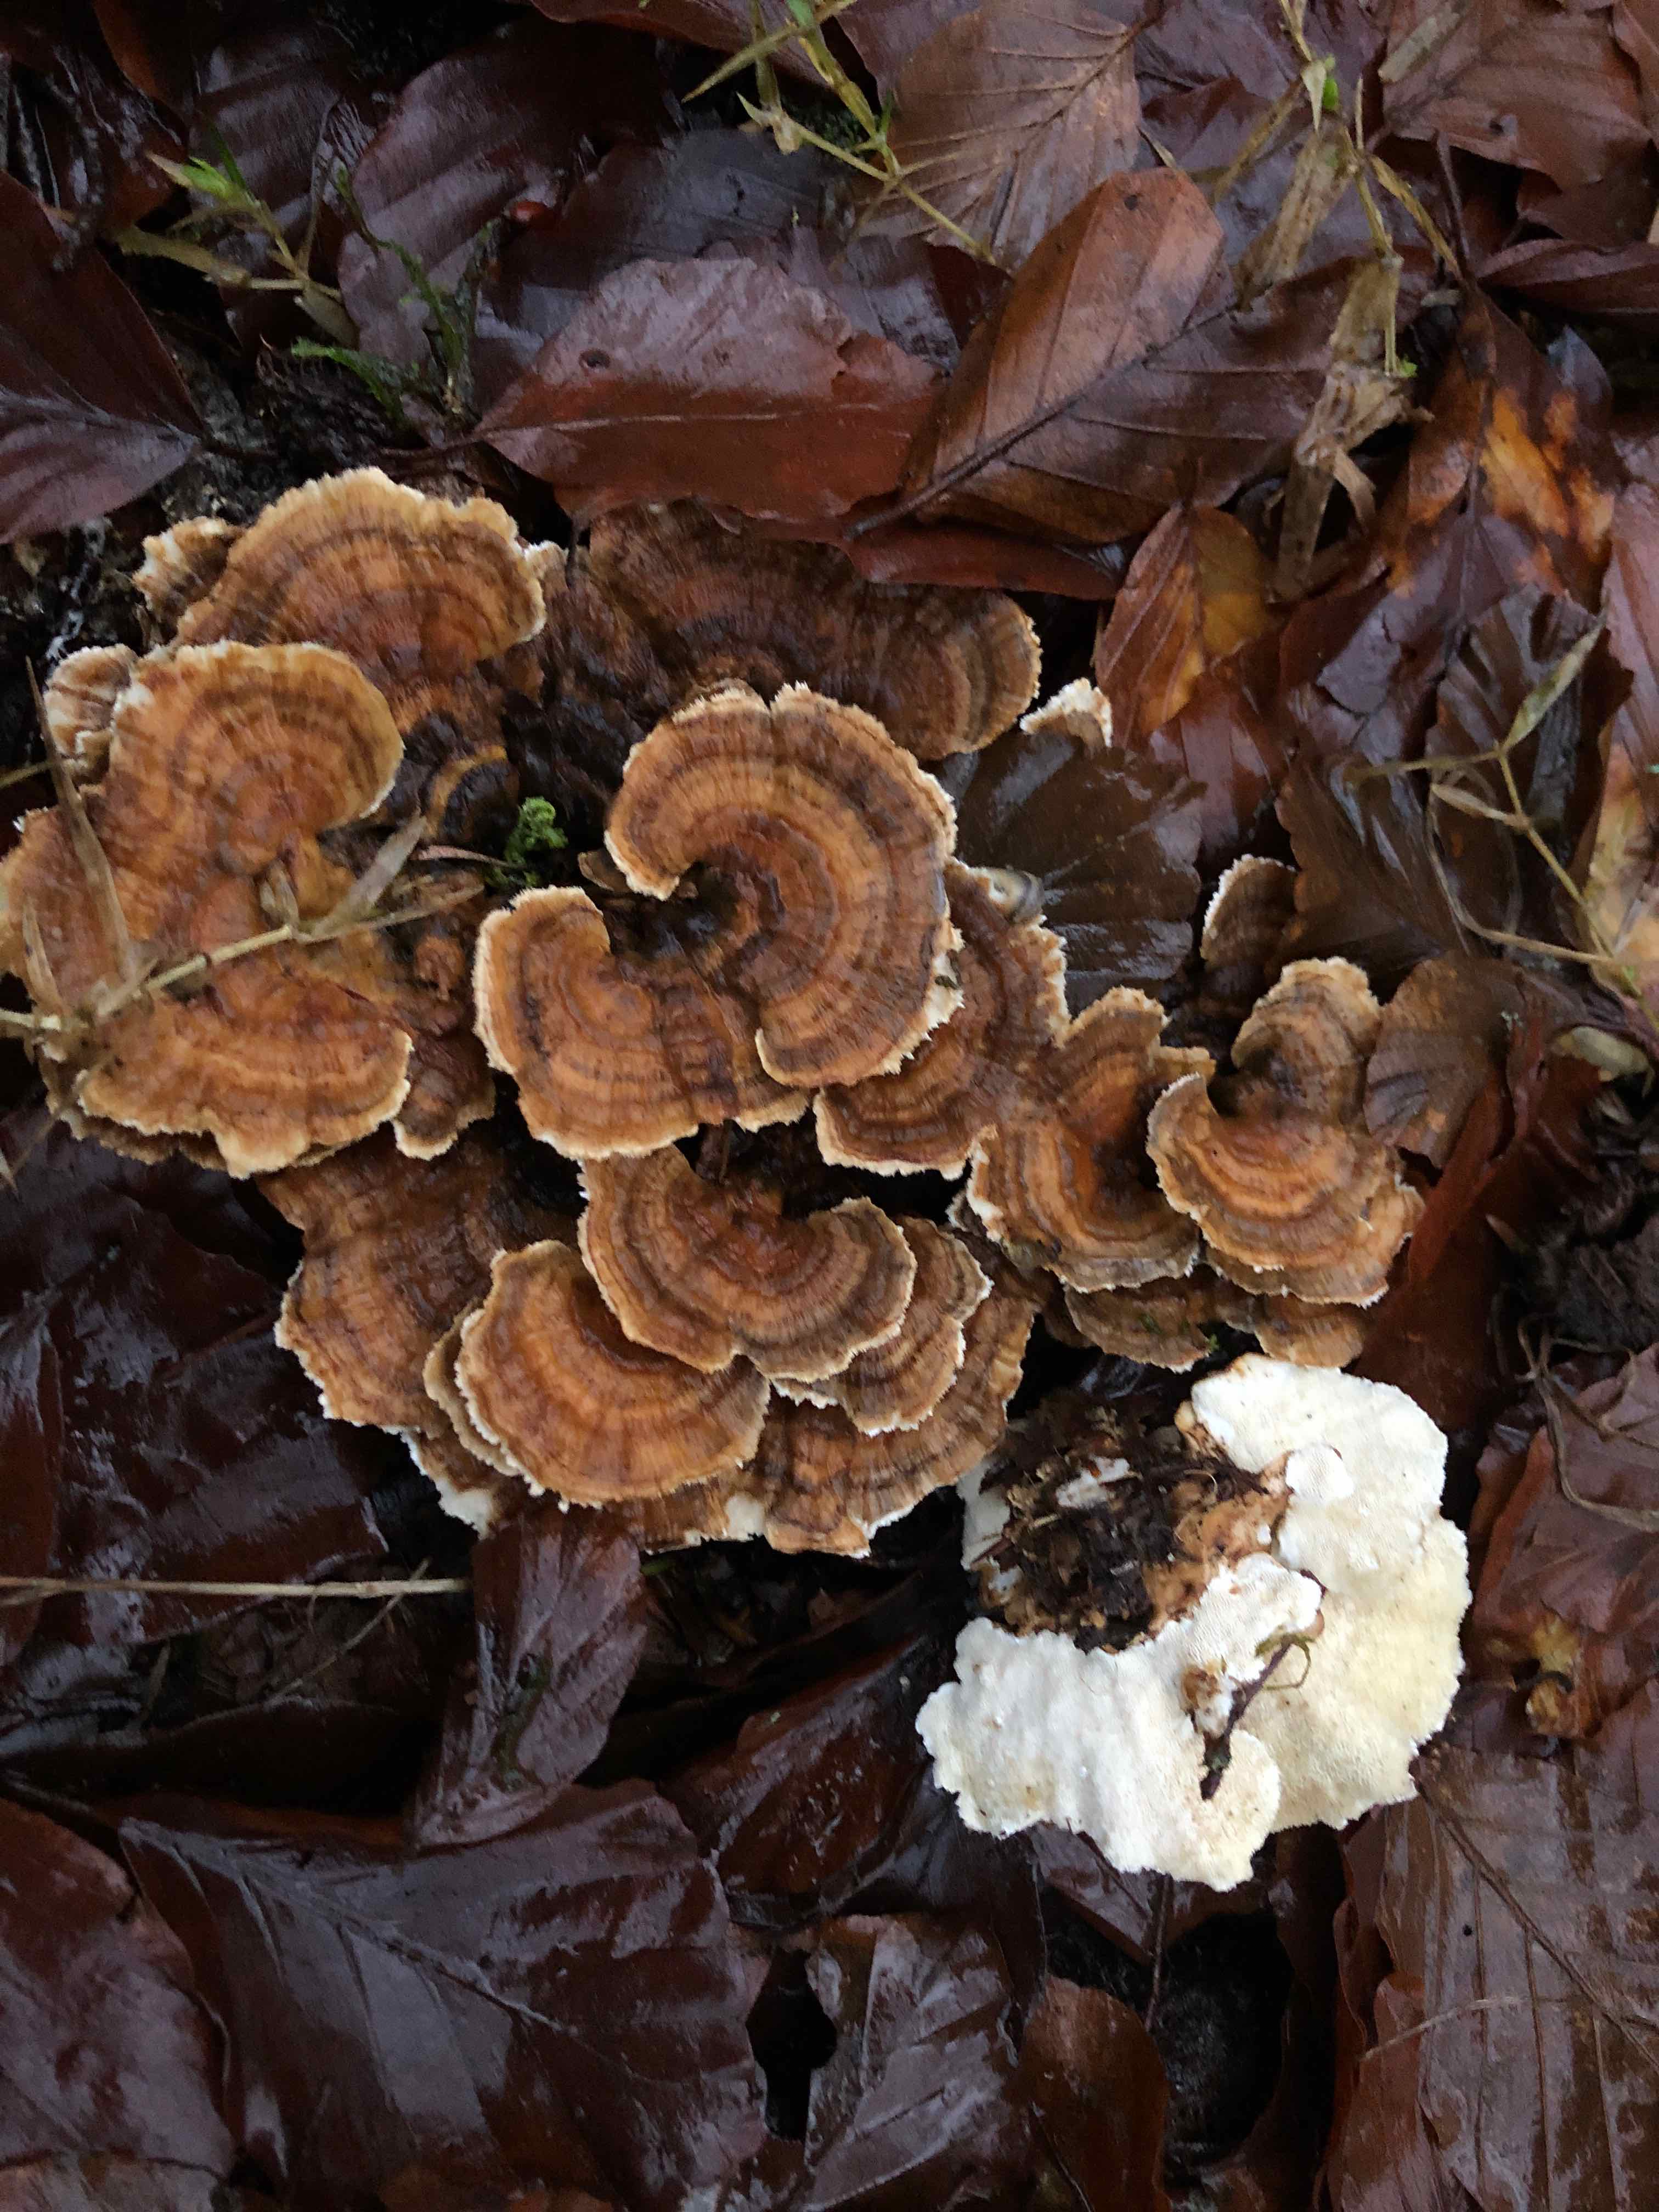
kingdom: Fungi
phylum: Basidiomycota
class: Agaricomycetes
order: Polyporales
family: Polyporaceae
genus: Trametes
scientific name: Trametes versicolor
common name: broget læderporesvamp
